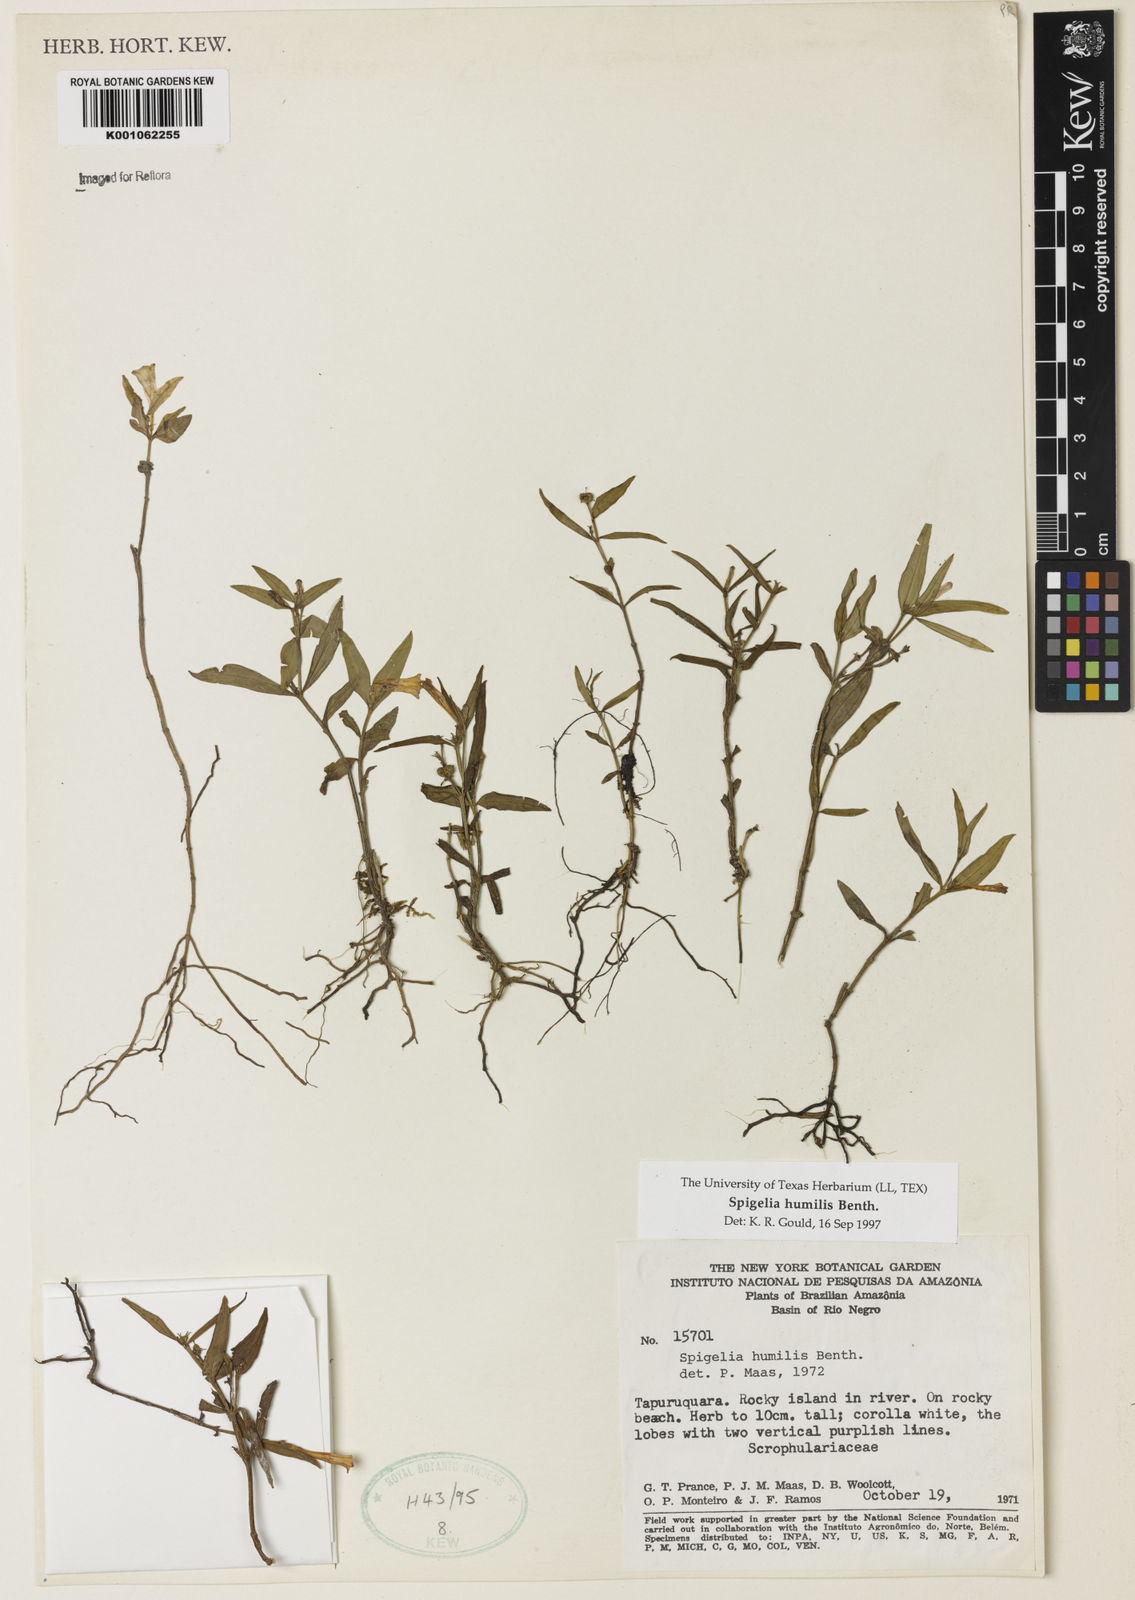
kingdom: Plantae
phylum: Tracheophyta
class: Magnoliopsida
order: Gentianales
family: Loganiaceae
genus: Spigelia
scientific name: Spigelia
